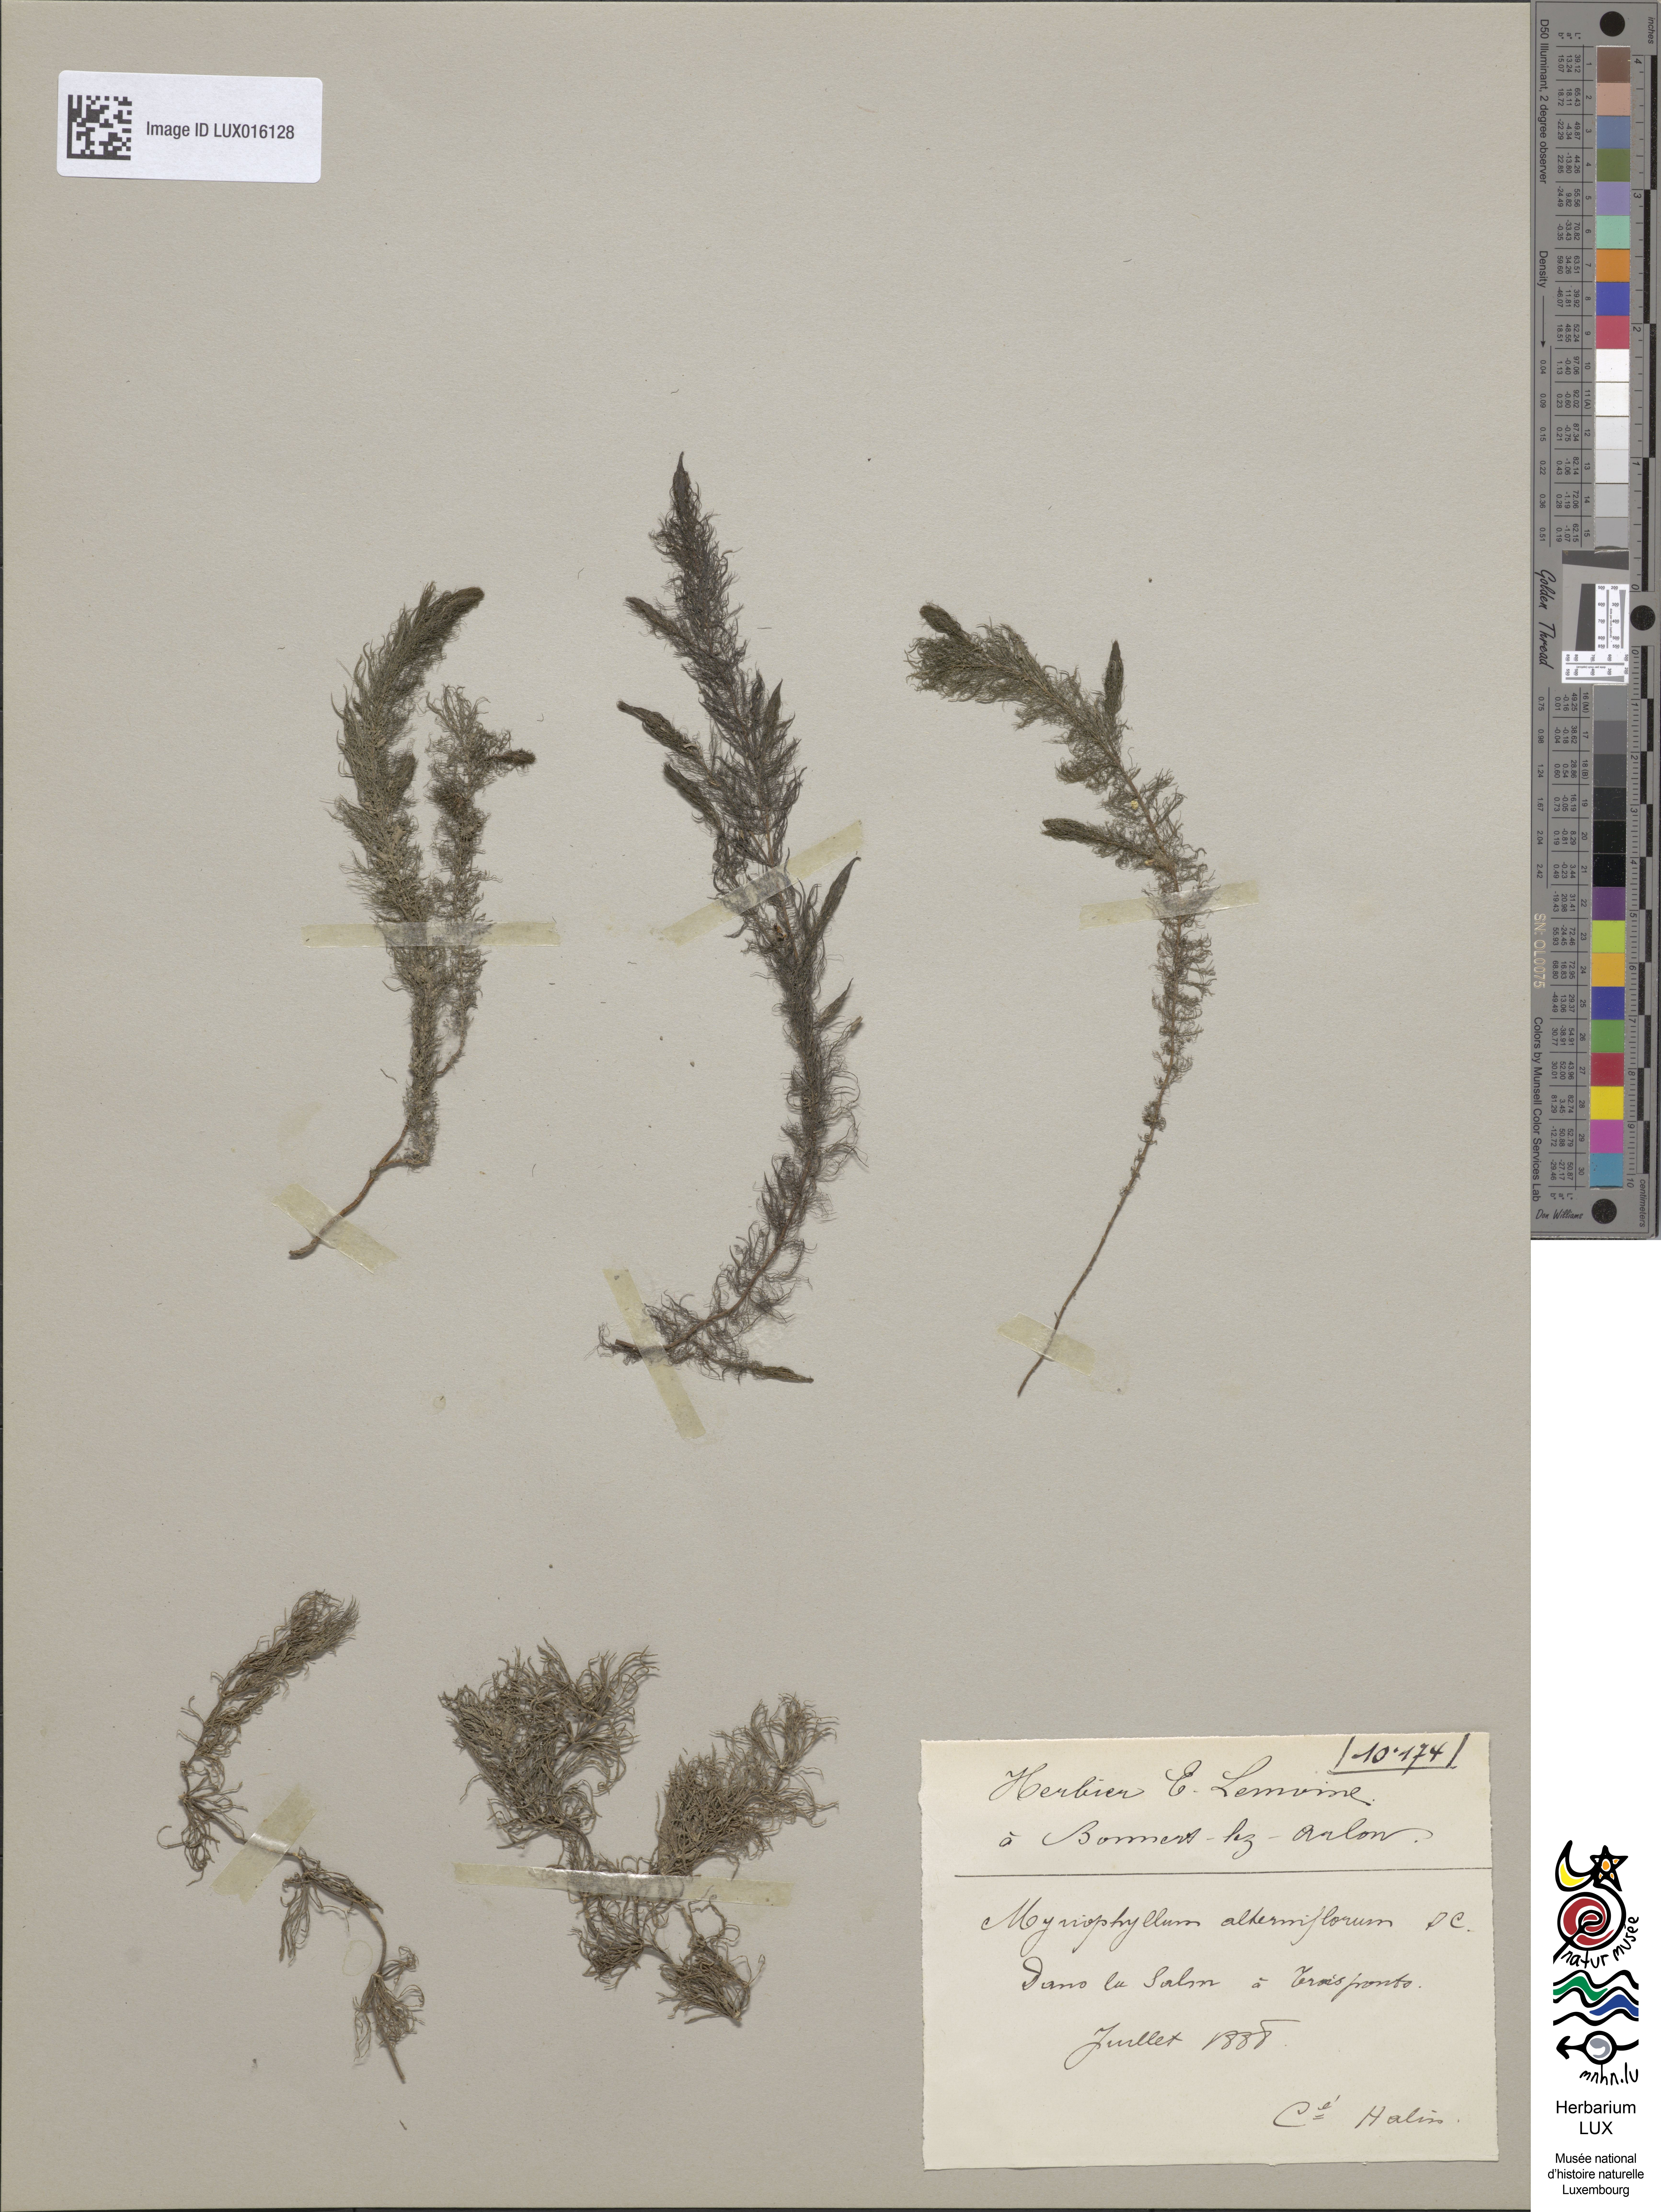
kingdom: Plantae
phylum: Tracheophyta
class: Magnoliopsida
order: Saxifragales
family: Haloragaceae
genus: Myriophyllum
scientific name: Myriophyllum alterniflorum
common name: Alternate water-milfoil
